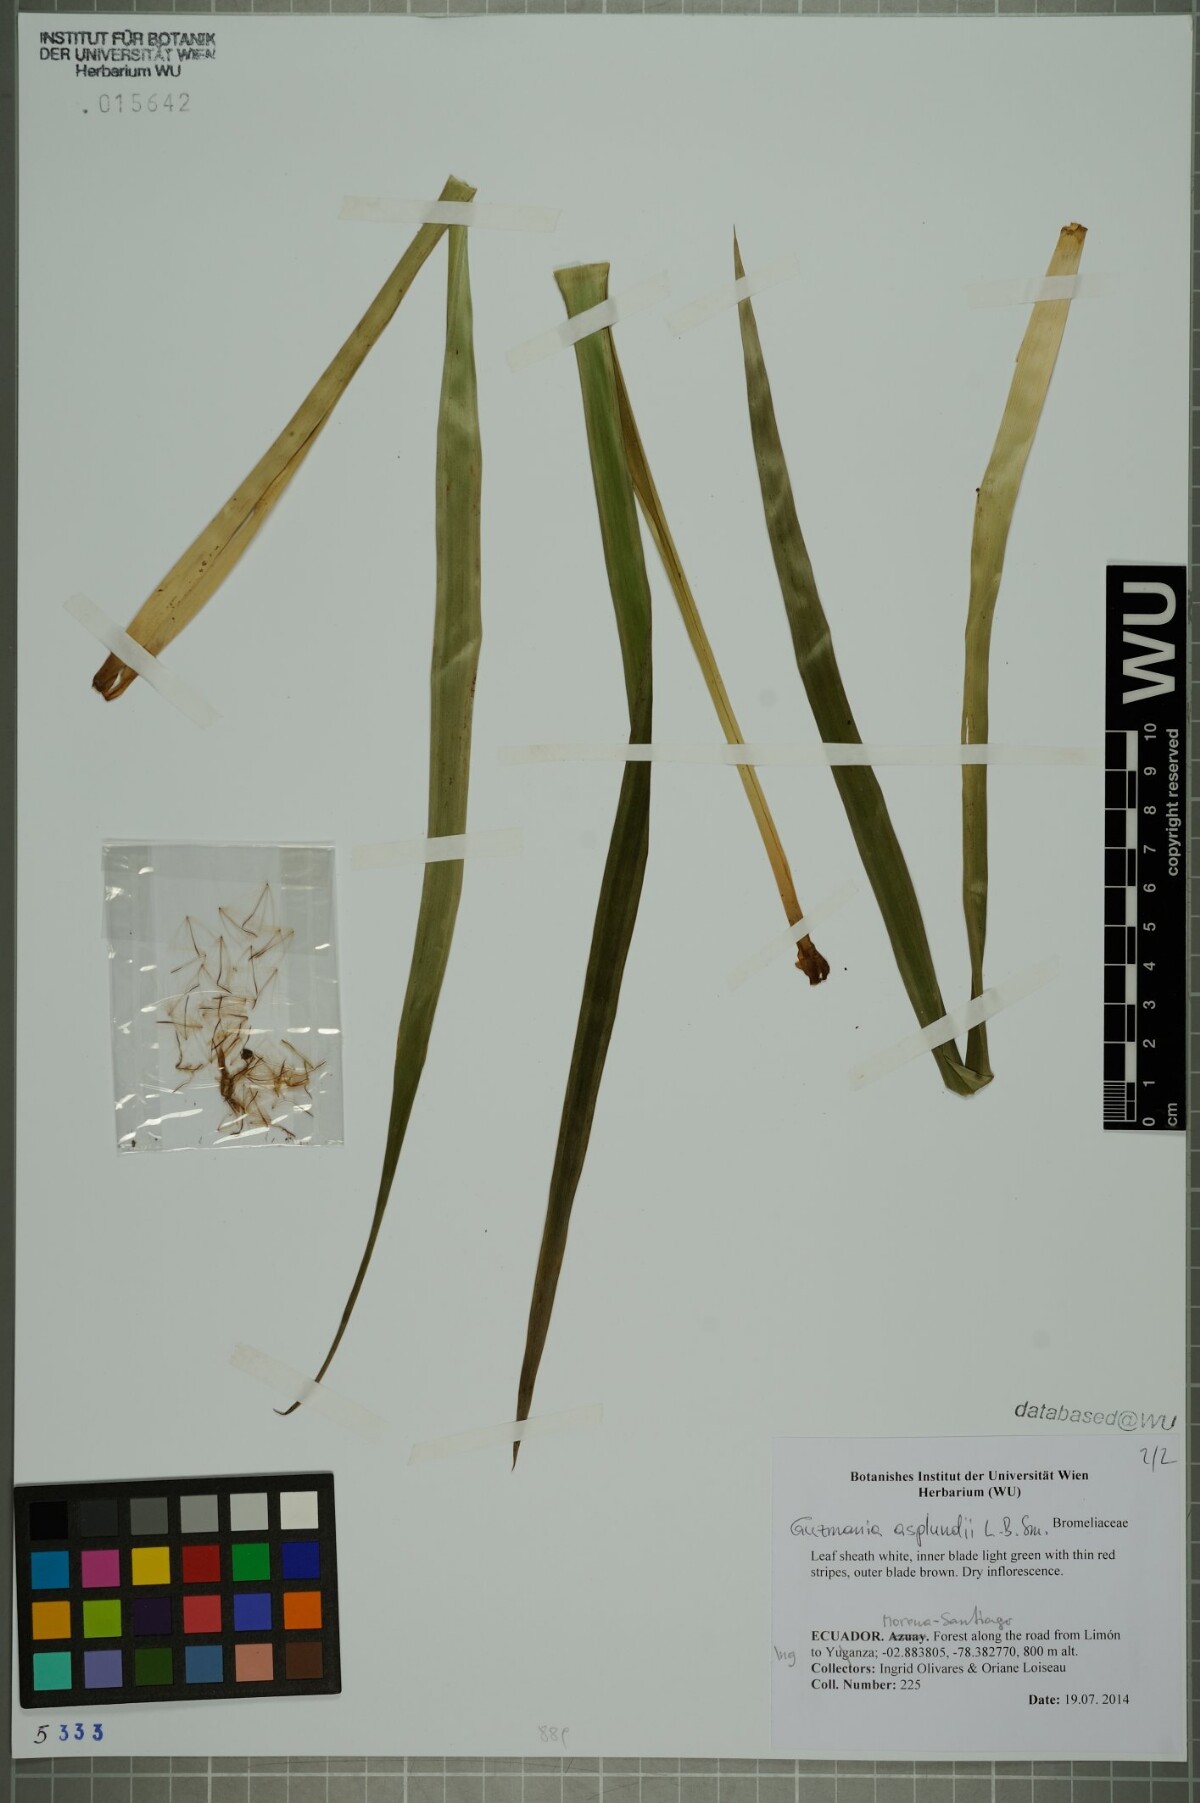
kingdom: Plantae
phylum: Tracheophyta
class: Liliopsida
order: Poales
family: Bromeliaceae
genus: Guzmania
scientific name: Guzmania asplundii
